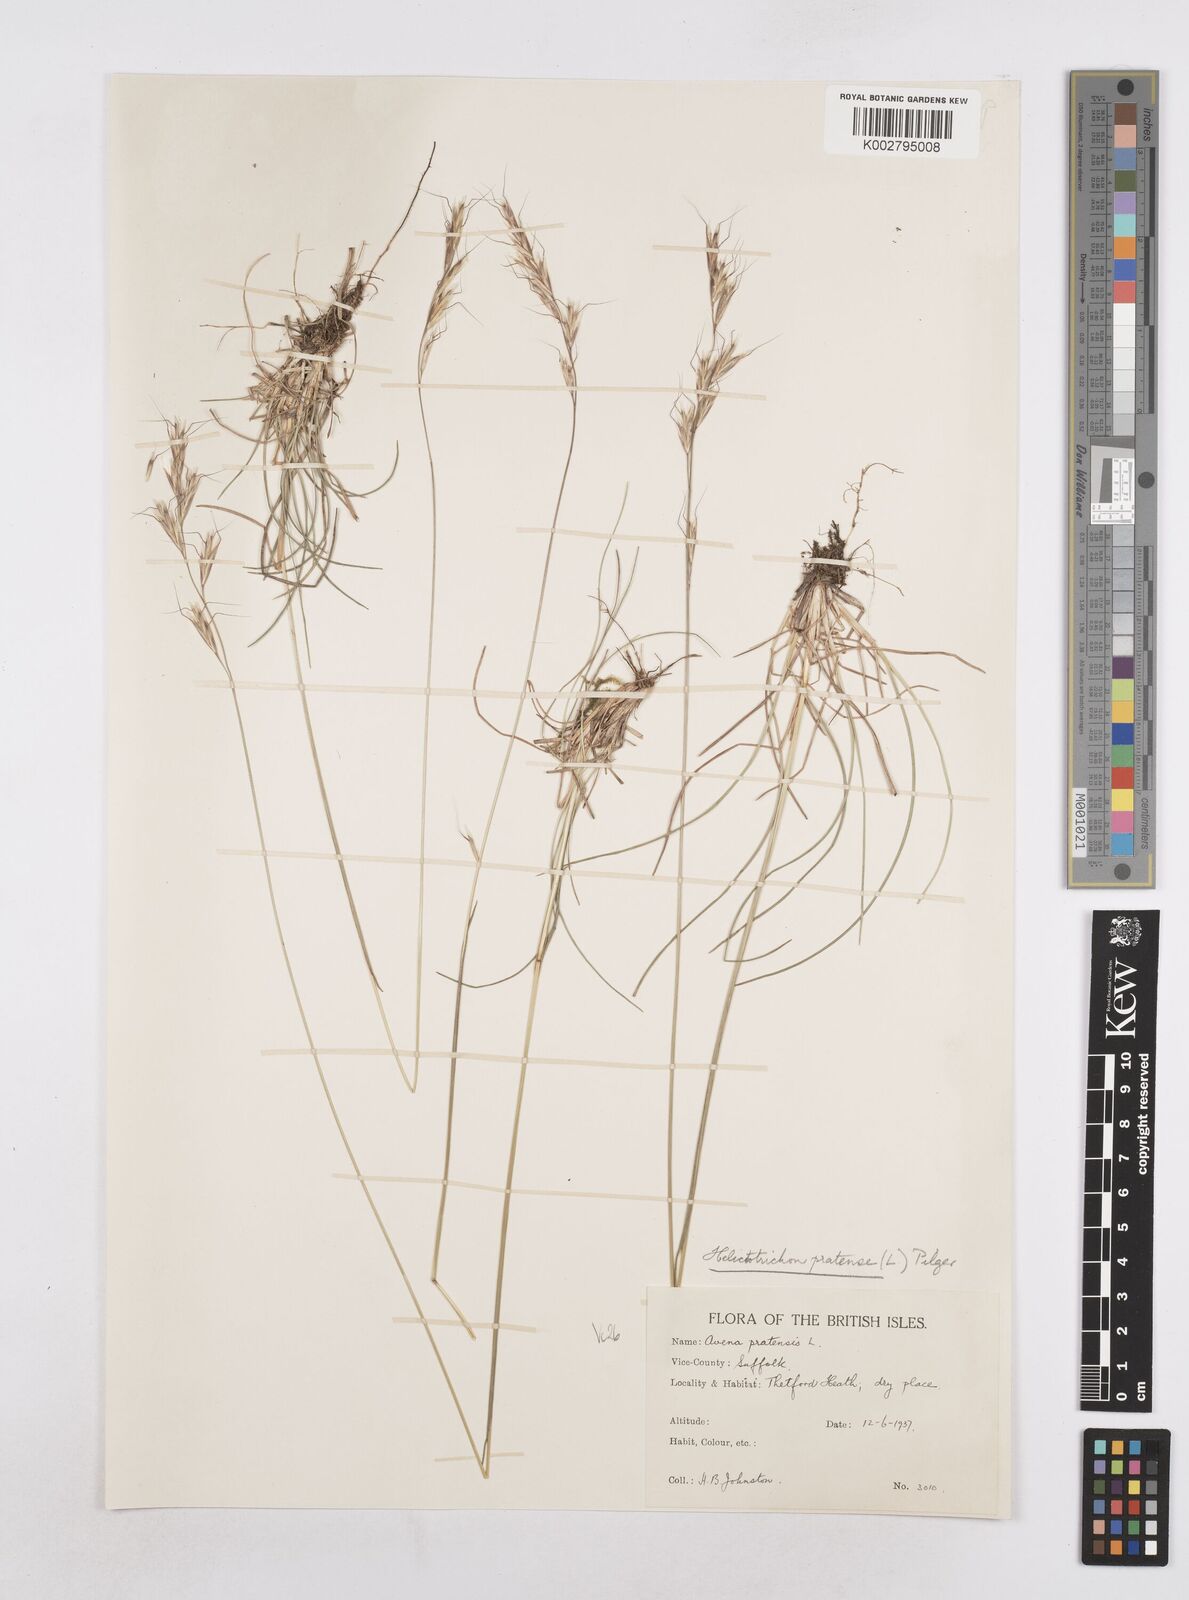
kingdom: Plantae
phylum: Tracheophyta
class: Liliopsida
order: Poales
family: Poaceae
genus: Helictochloa
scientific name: Helictochloa pratensis
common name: Meadow oat grass
